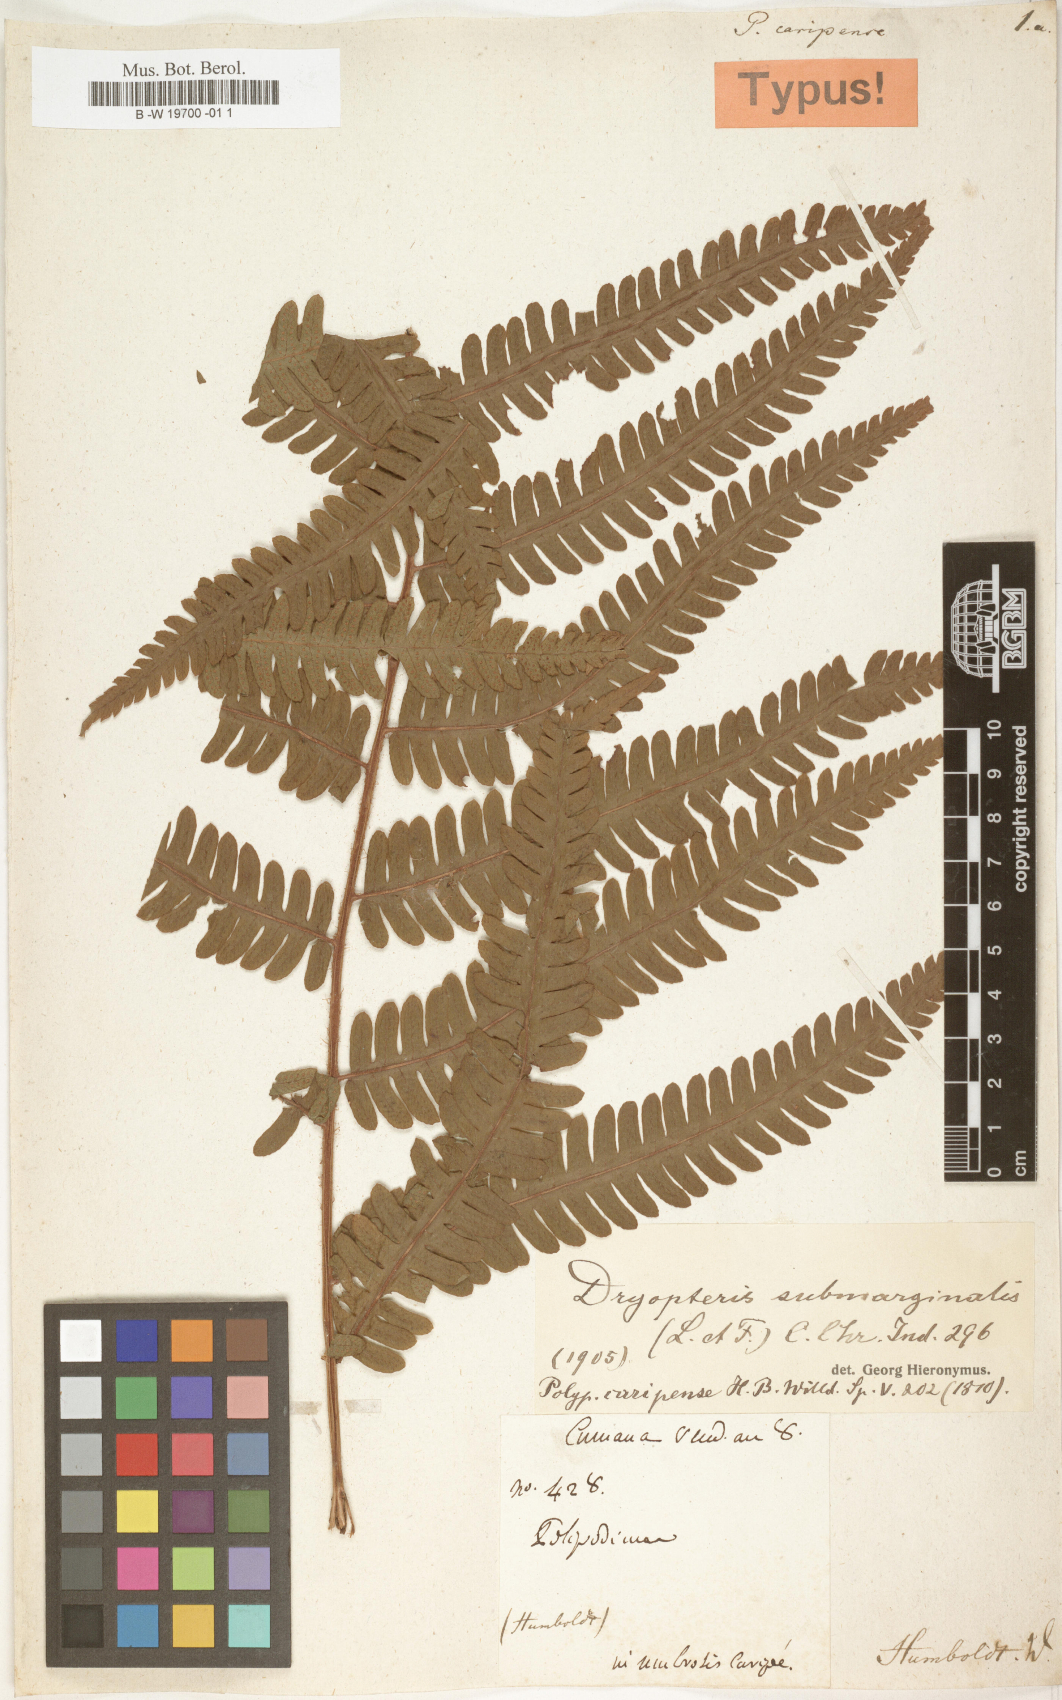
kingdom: Plantae
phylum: Tracheophyta
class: Polypodiopsida
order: Polypodiales
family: Dryopteridaceae
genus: Ctenitis
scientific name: Ctenitis submarginalis
